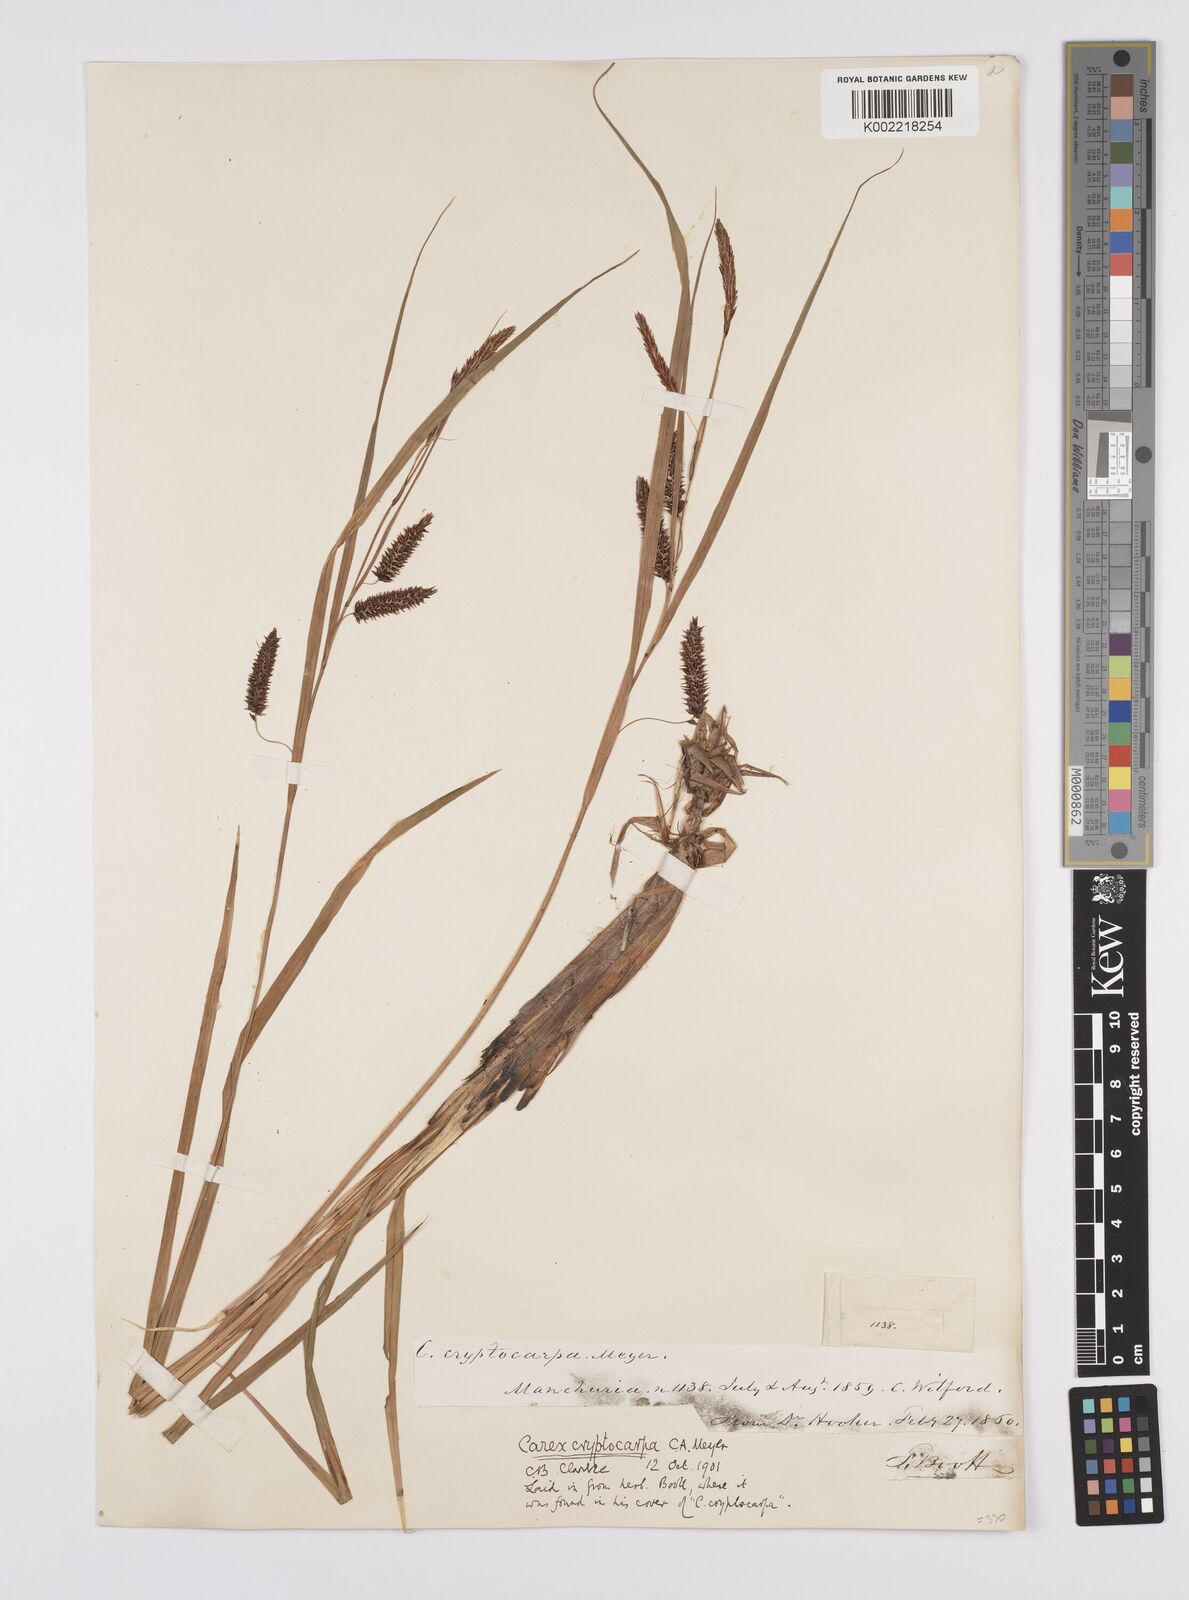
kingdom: Plantae
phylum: Tracheophyta
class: Liliopsida
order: Poales
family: Cyperaceae
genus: Carex
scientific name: Carex lyngbyei
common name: Lyngbye's sedge
